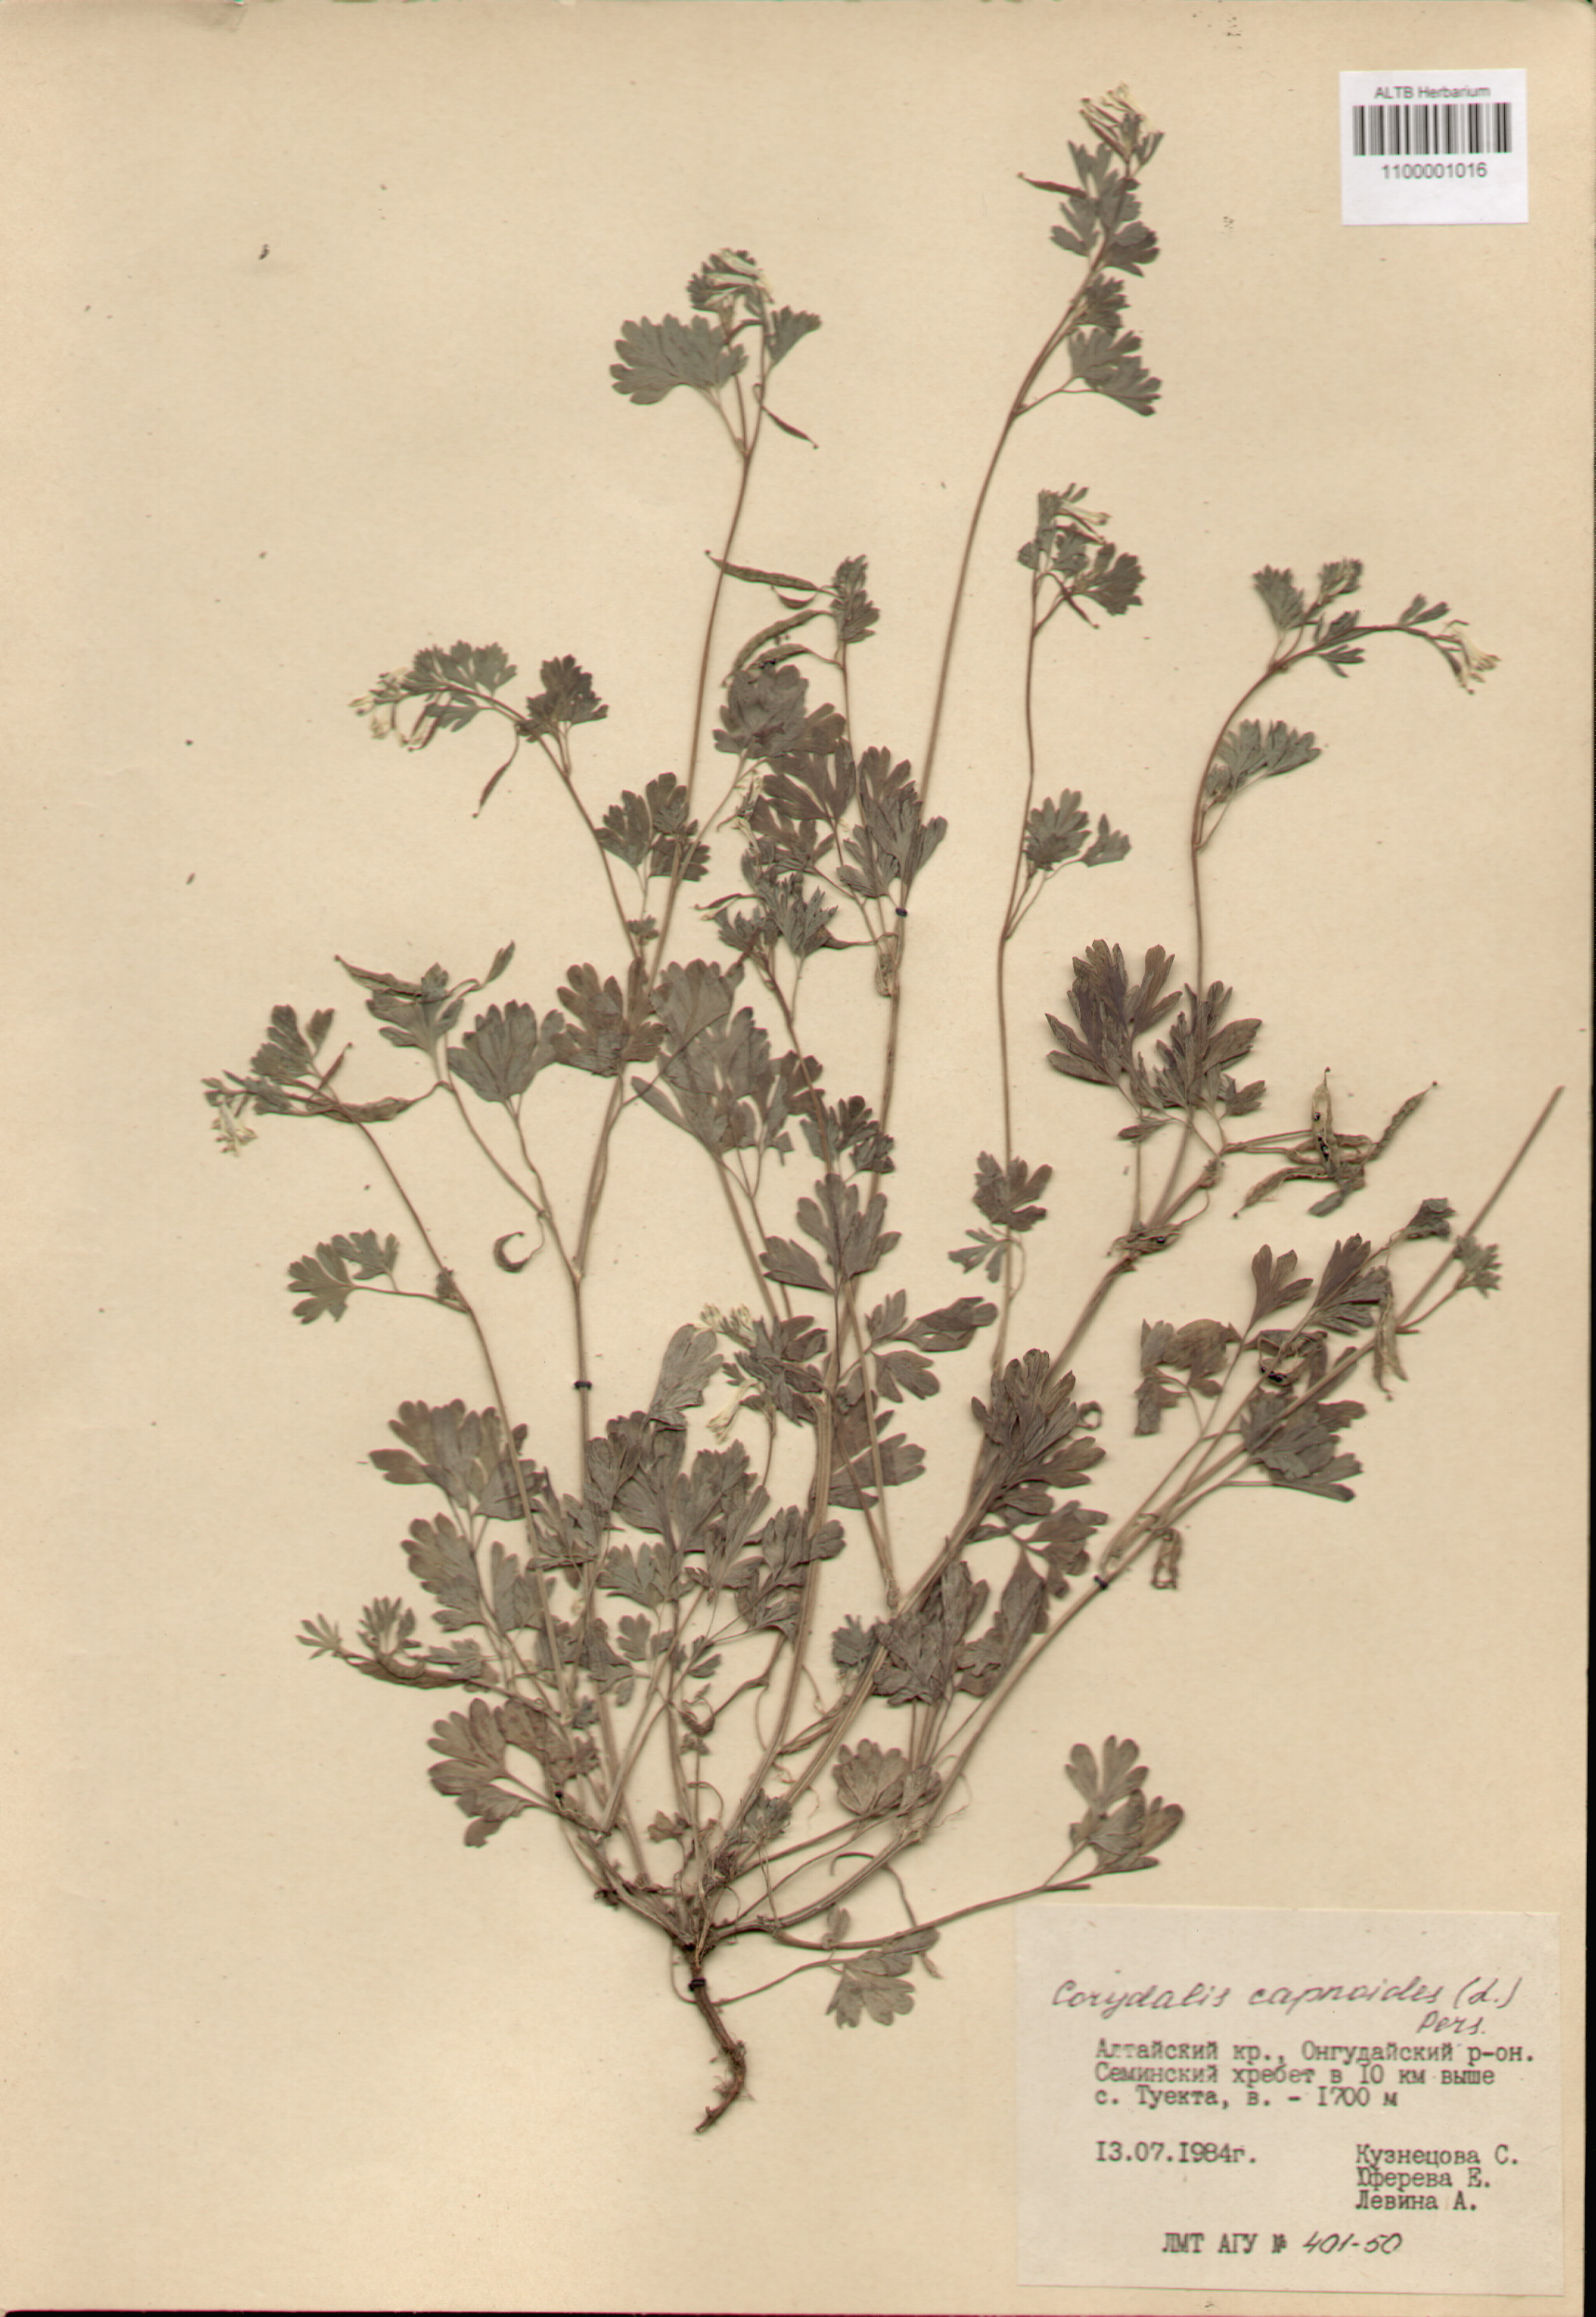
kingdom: Plantae
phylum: Tracheophyta
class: Magnoliopsida
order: Ranunculales
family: Papaveraceae
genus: Corydalis
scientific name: Corydalis capnoides
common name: Beaked corydalis
